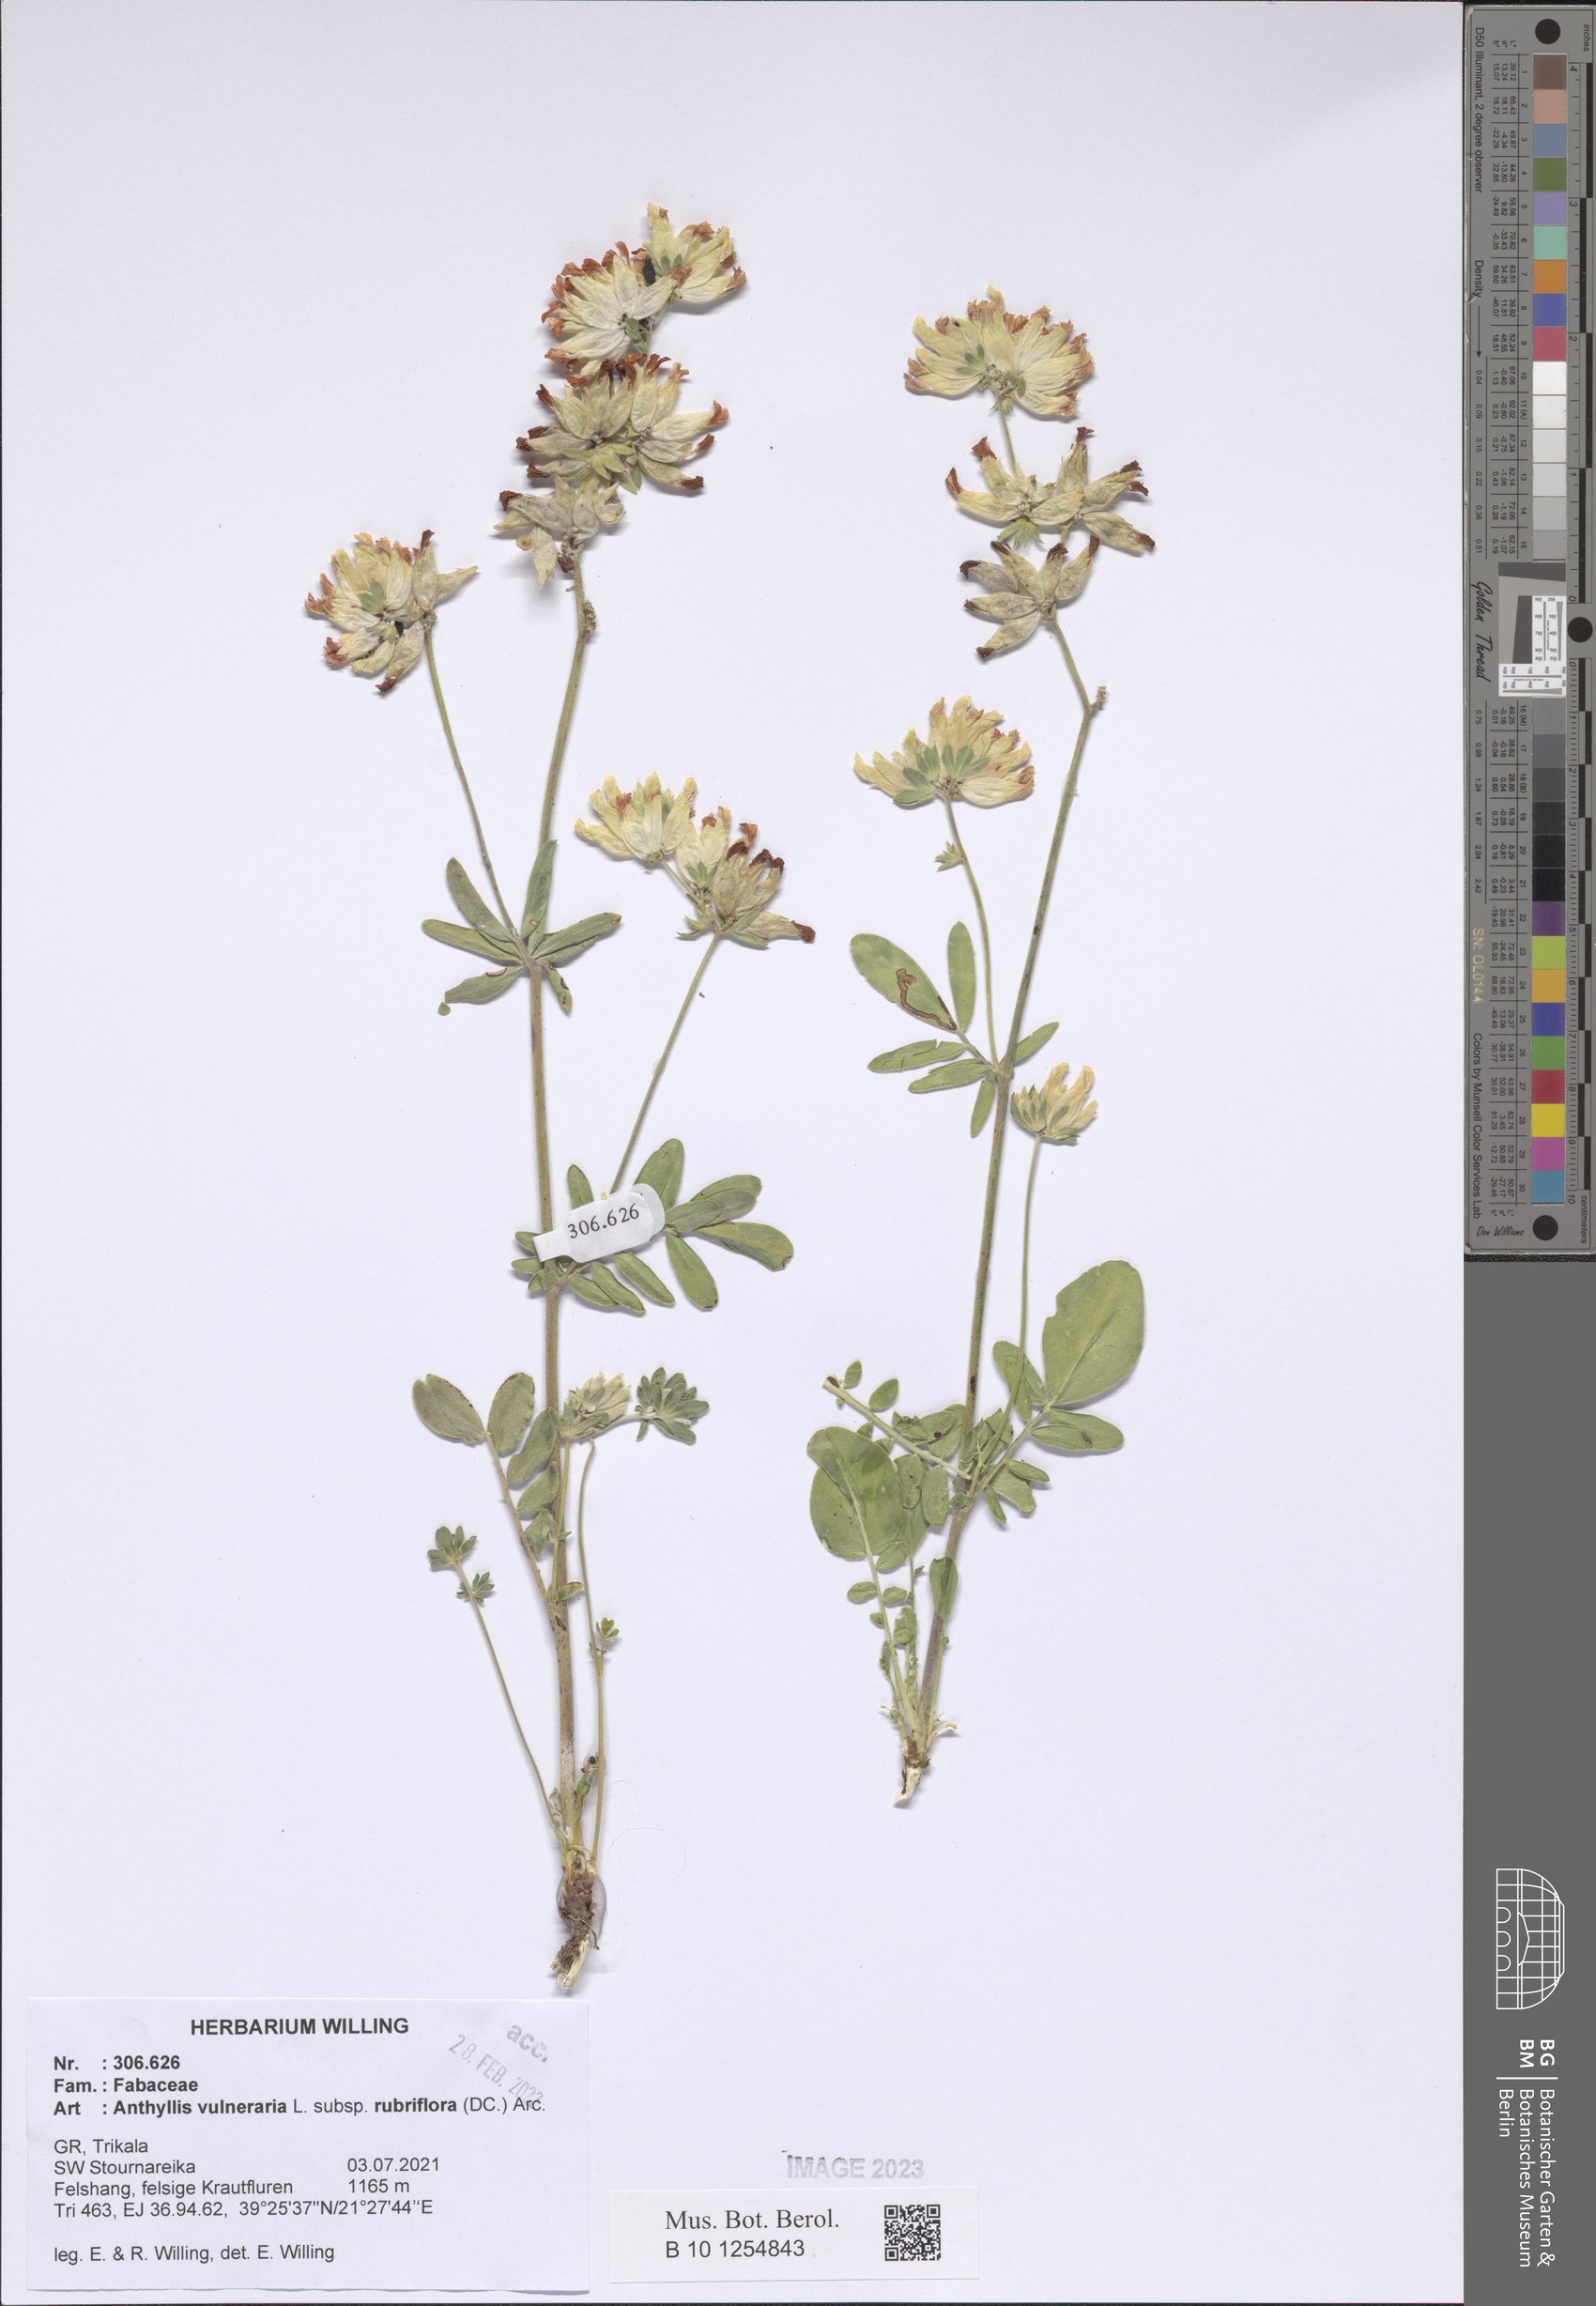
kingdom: Plantae
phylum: Tracheophyta
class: Magnoliopsida
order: Fabales
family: Fabaceae
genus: Anthyllis
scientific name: Anthyllis vulneraria
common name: Kidney vetch
